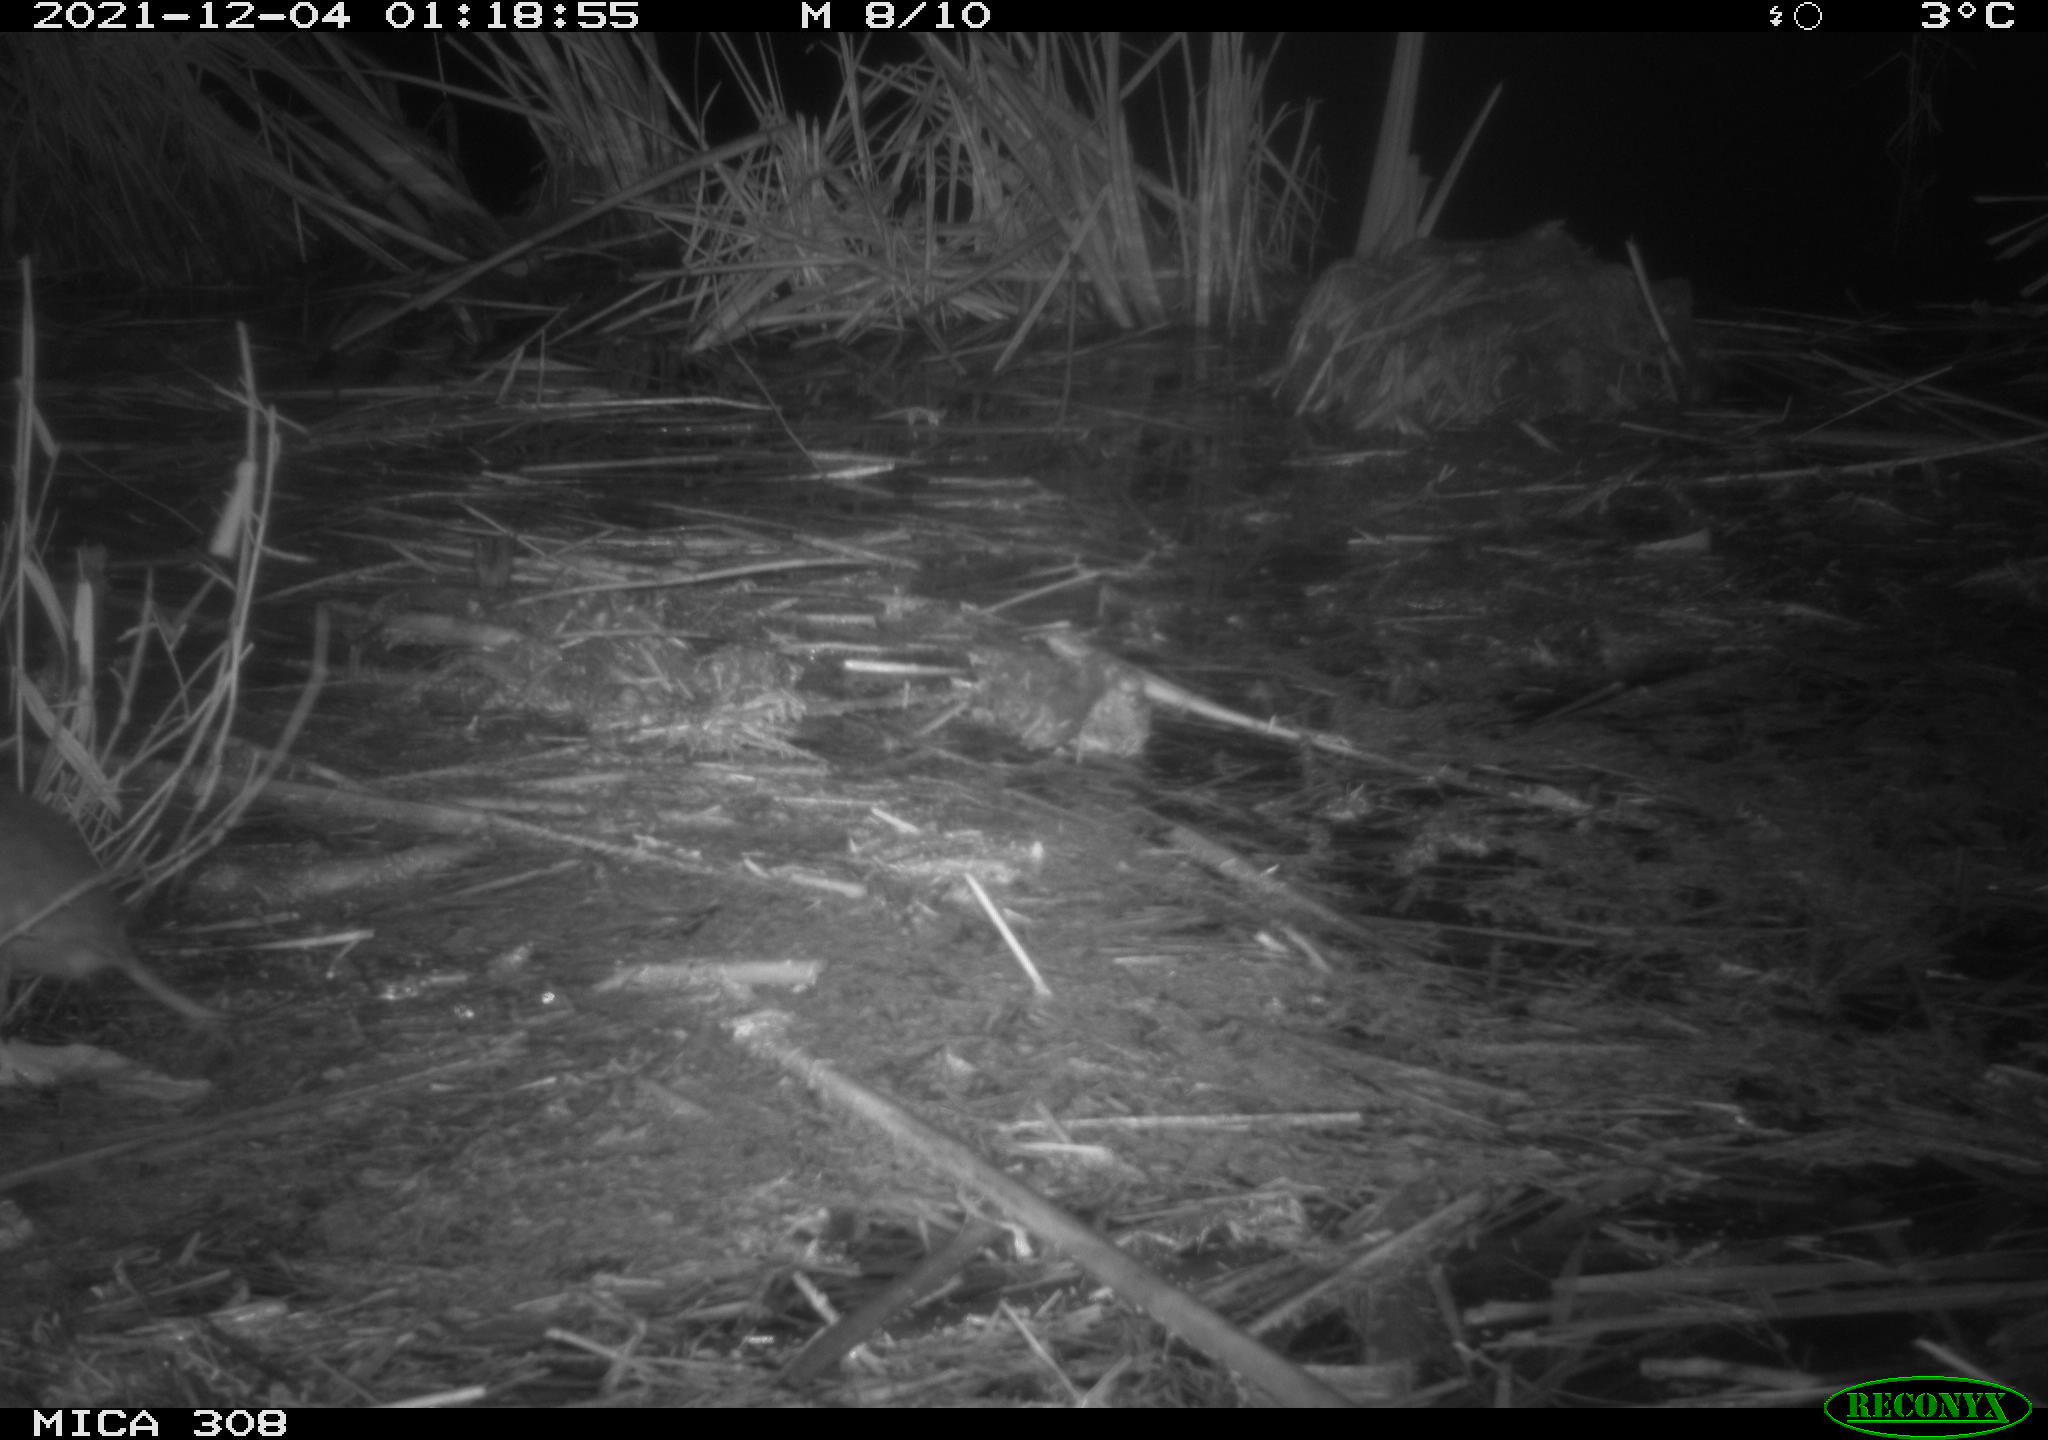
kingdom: Animalia
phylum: Chordata
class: Mammalia
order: Rodentia
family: Muridae
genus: Rattus
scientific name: Rattus norvegicus
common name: Brown rat
